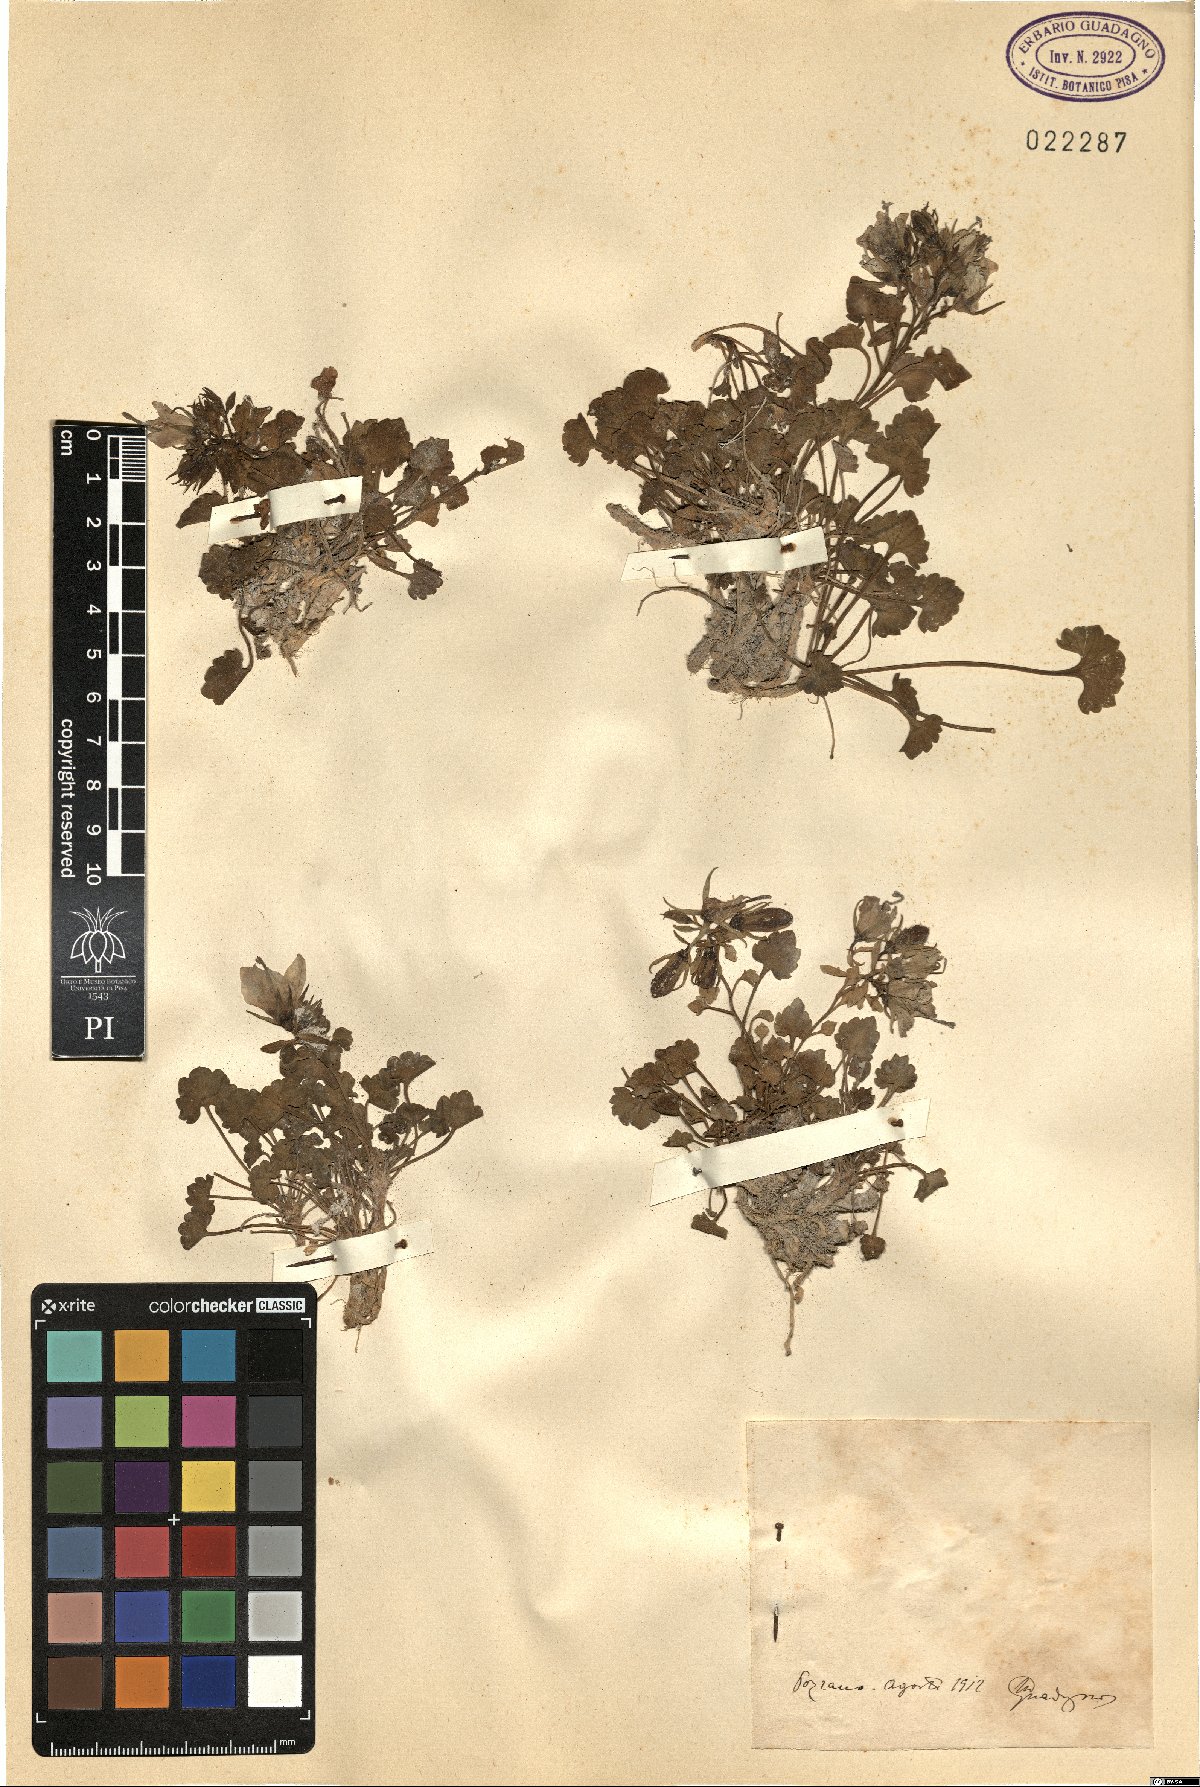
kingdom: Plantae
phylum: Tracheophyta
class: Magnoliopsida
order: Asterales
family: Campanulaceae
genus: Campanula
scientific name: Campanula
